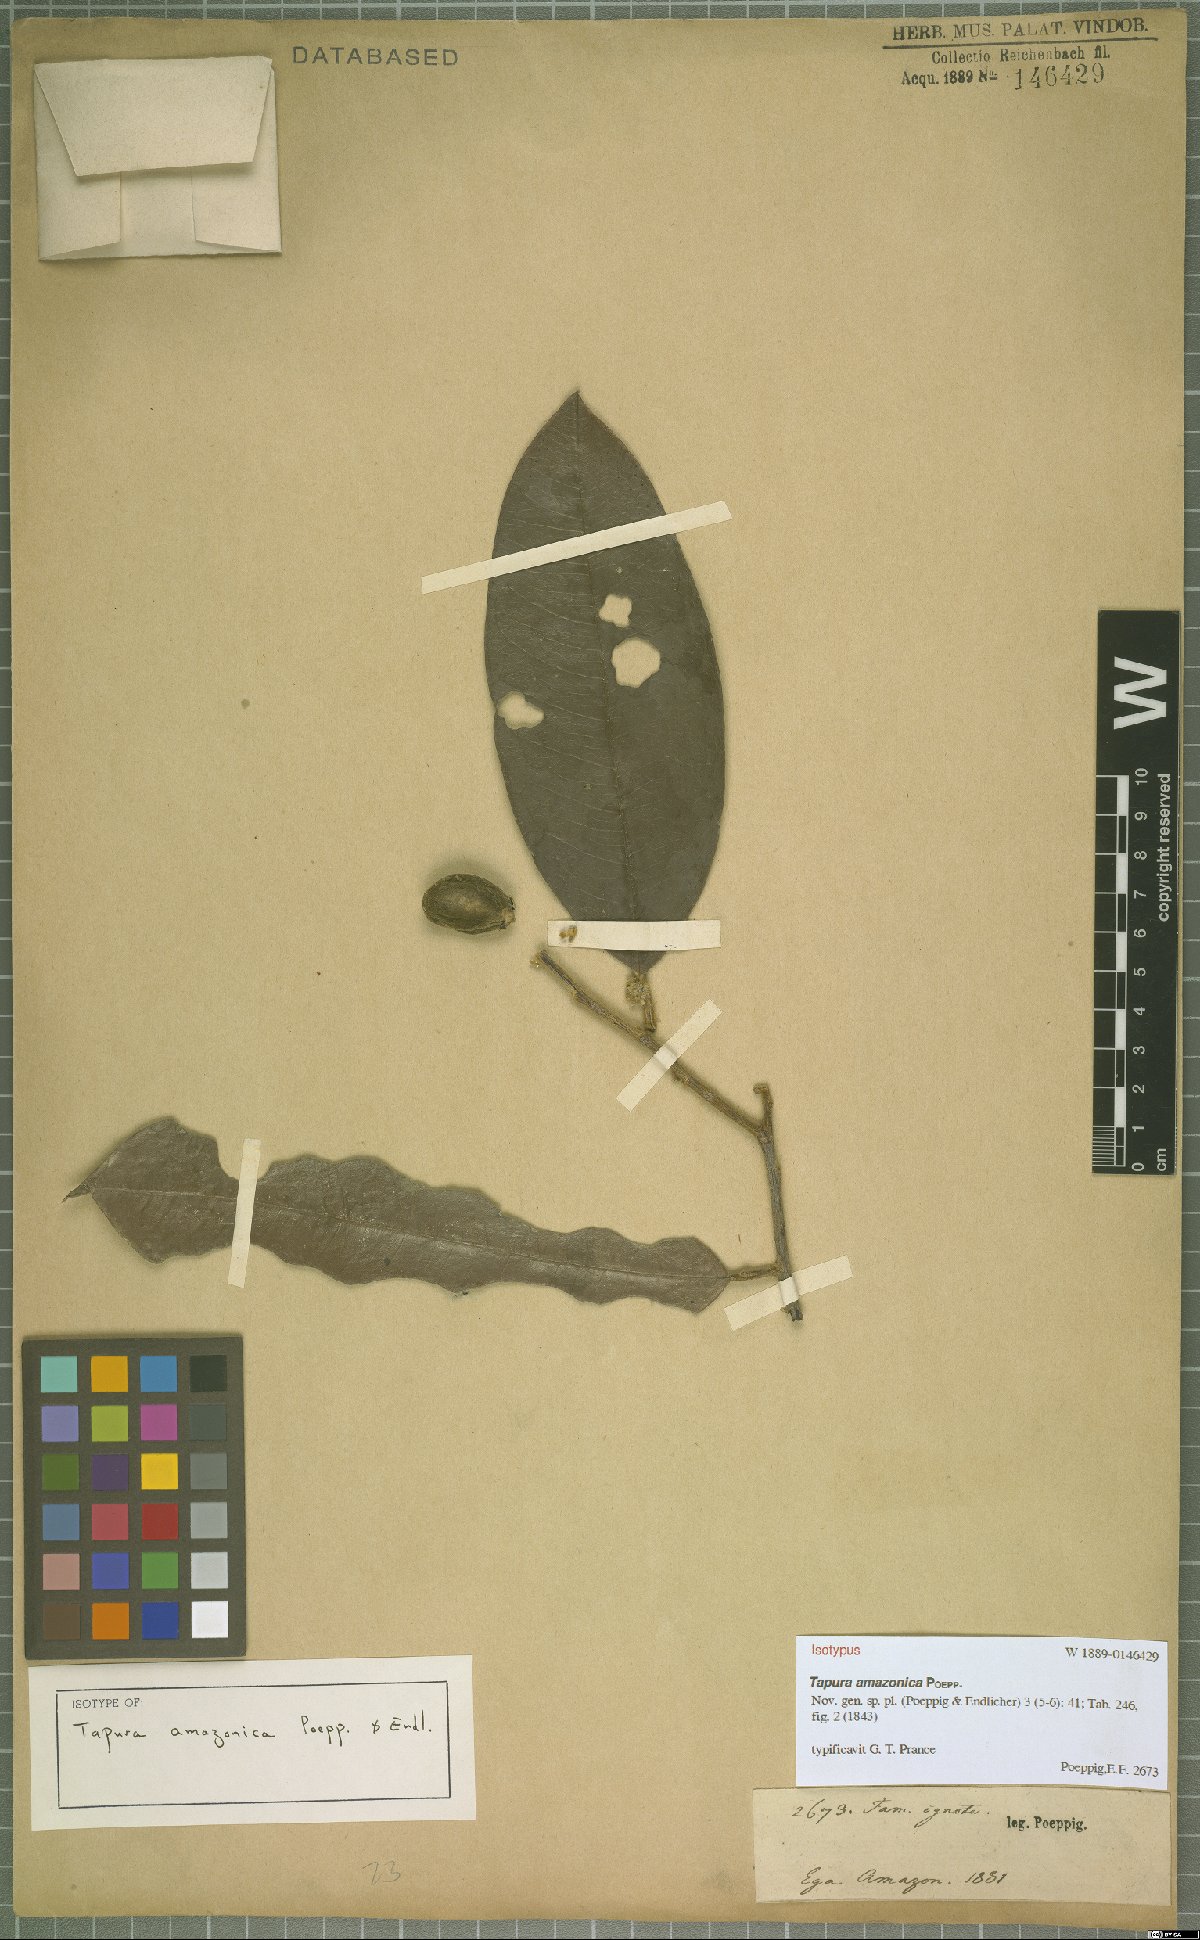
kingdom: Plantae
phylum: Tracheophyta
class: Magnoliopsida
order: Malpighiales
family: Dichapetalaceae
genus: Tapura
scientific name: Tapura amazonica
